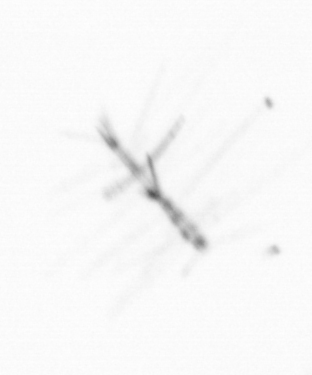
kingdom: Chromista
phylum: Ochrophyta
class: Bacillariophyceae
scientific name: Bacillariophyceae
